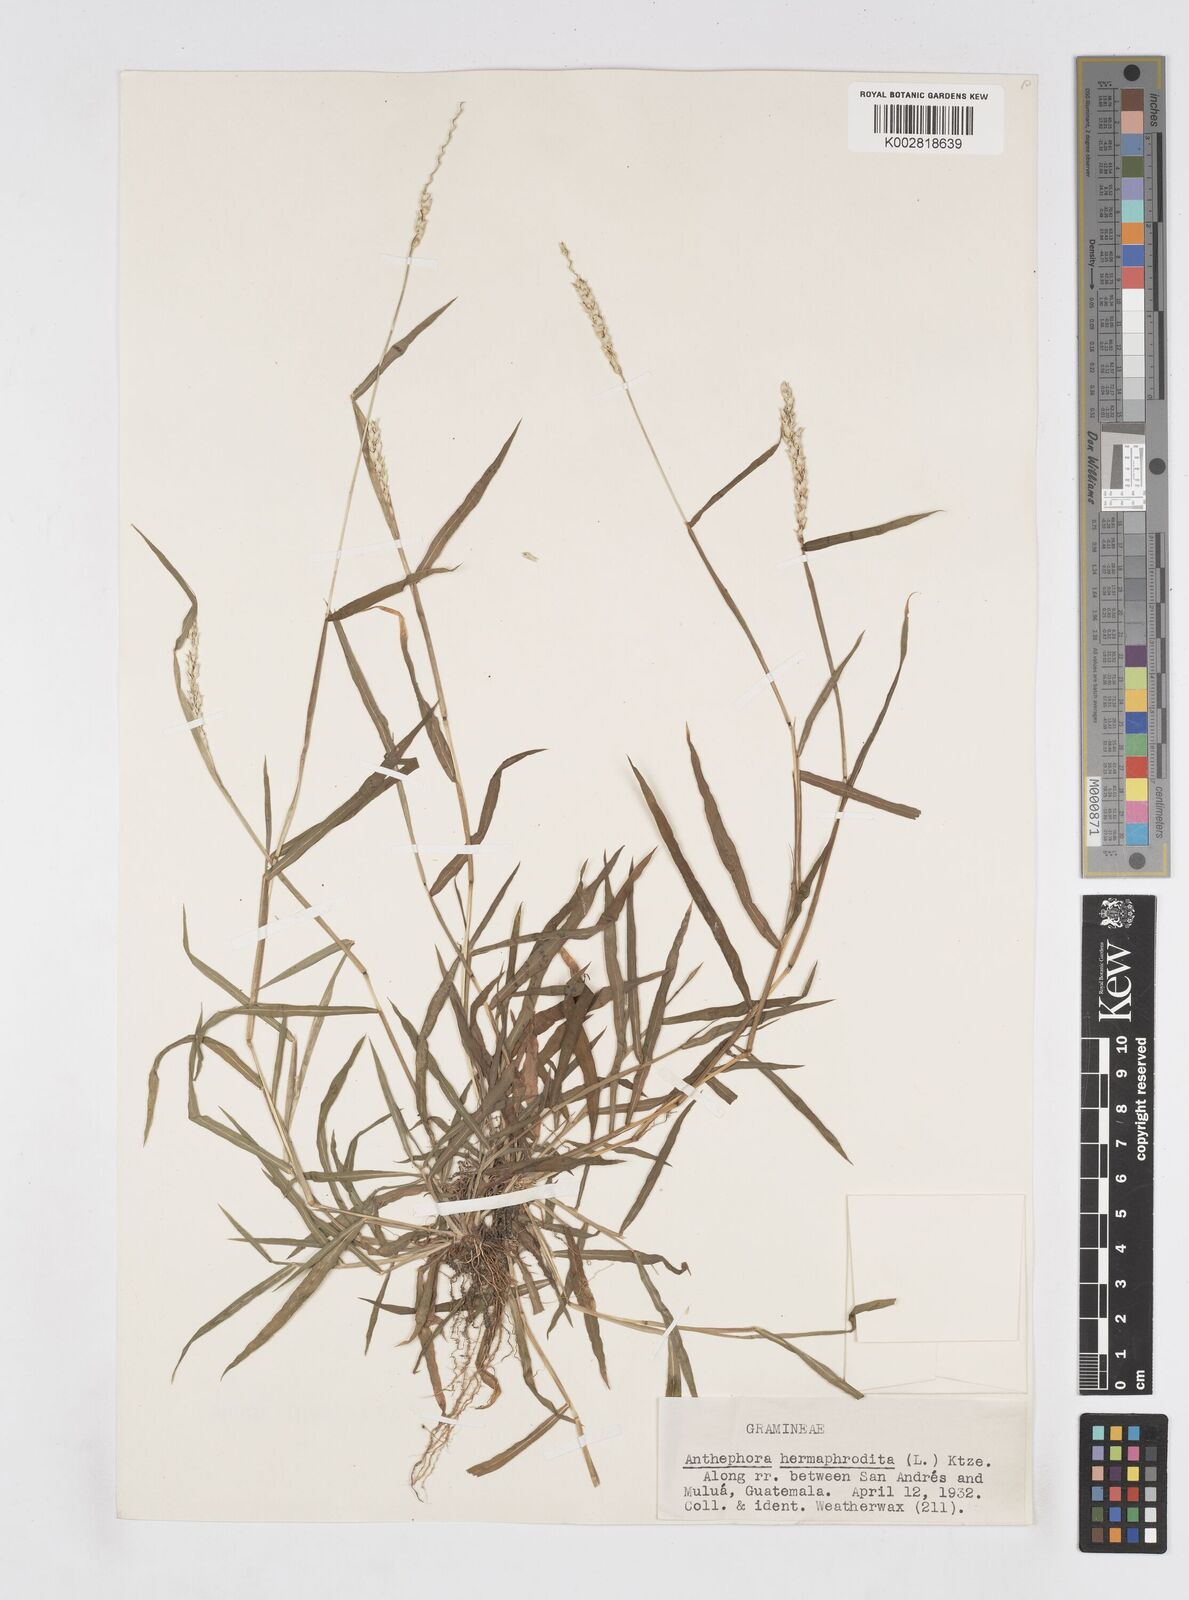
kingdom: Plantae
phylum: Tracheophyta
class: Liliopsida
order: Poales
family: Poaceae
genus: Anthephora
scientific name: Anthephora hermaphrodita
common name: Oldfield grass
